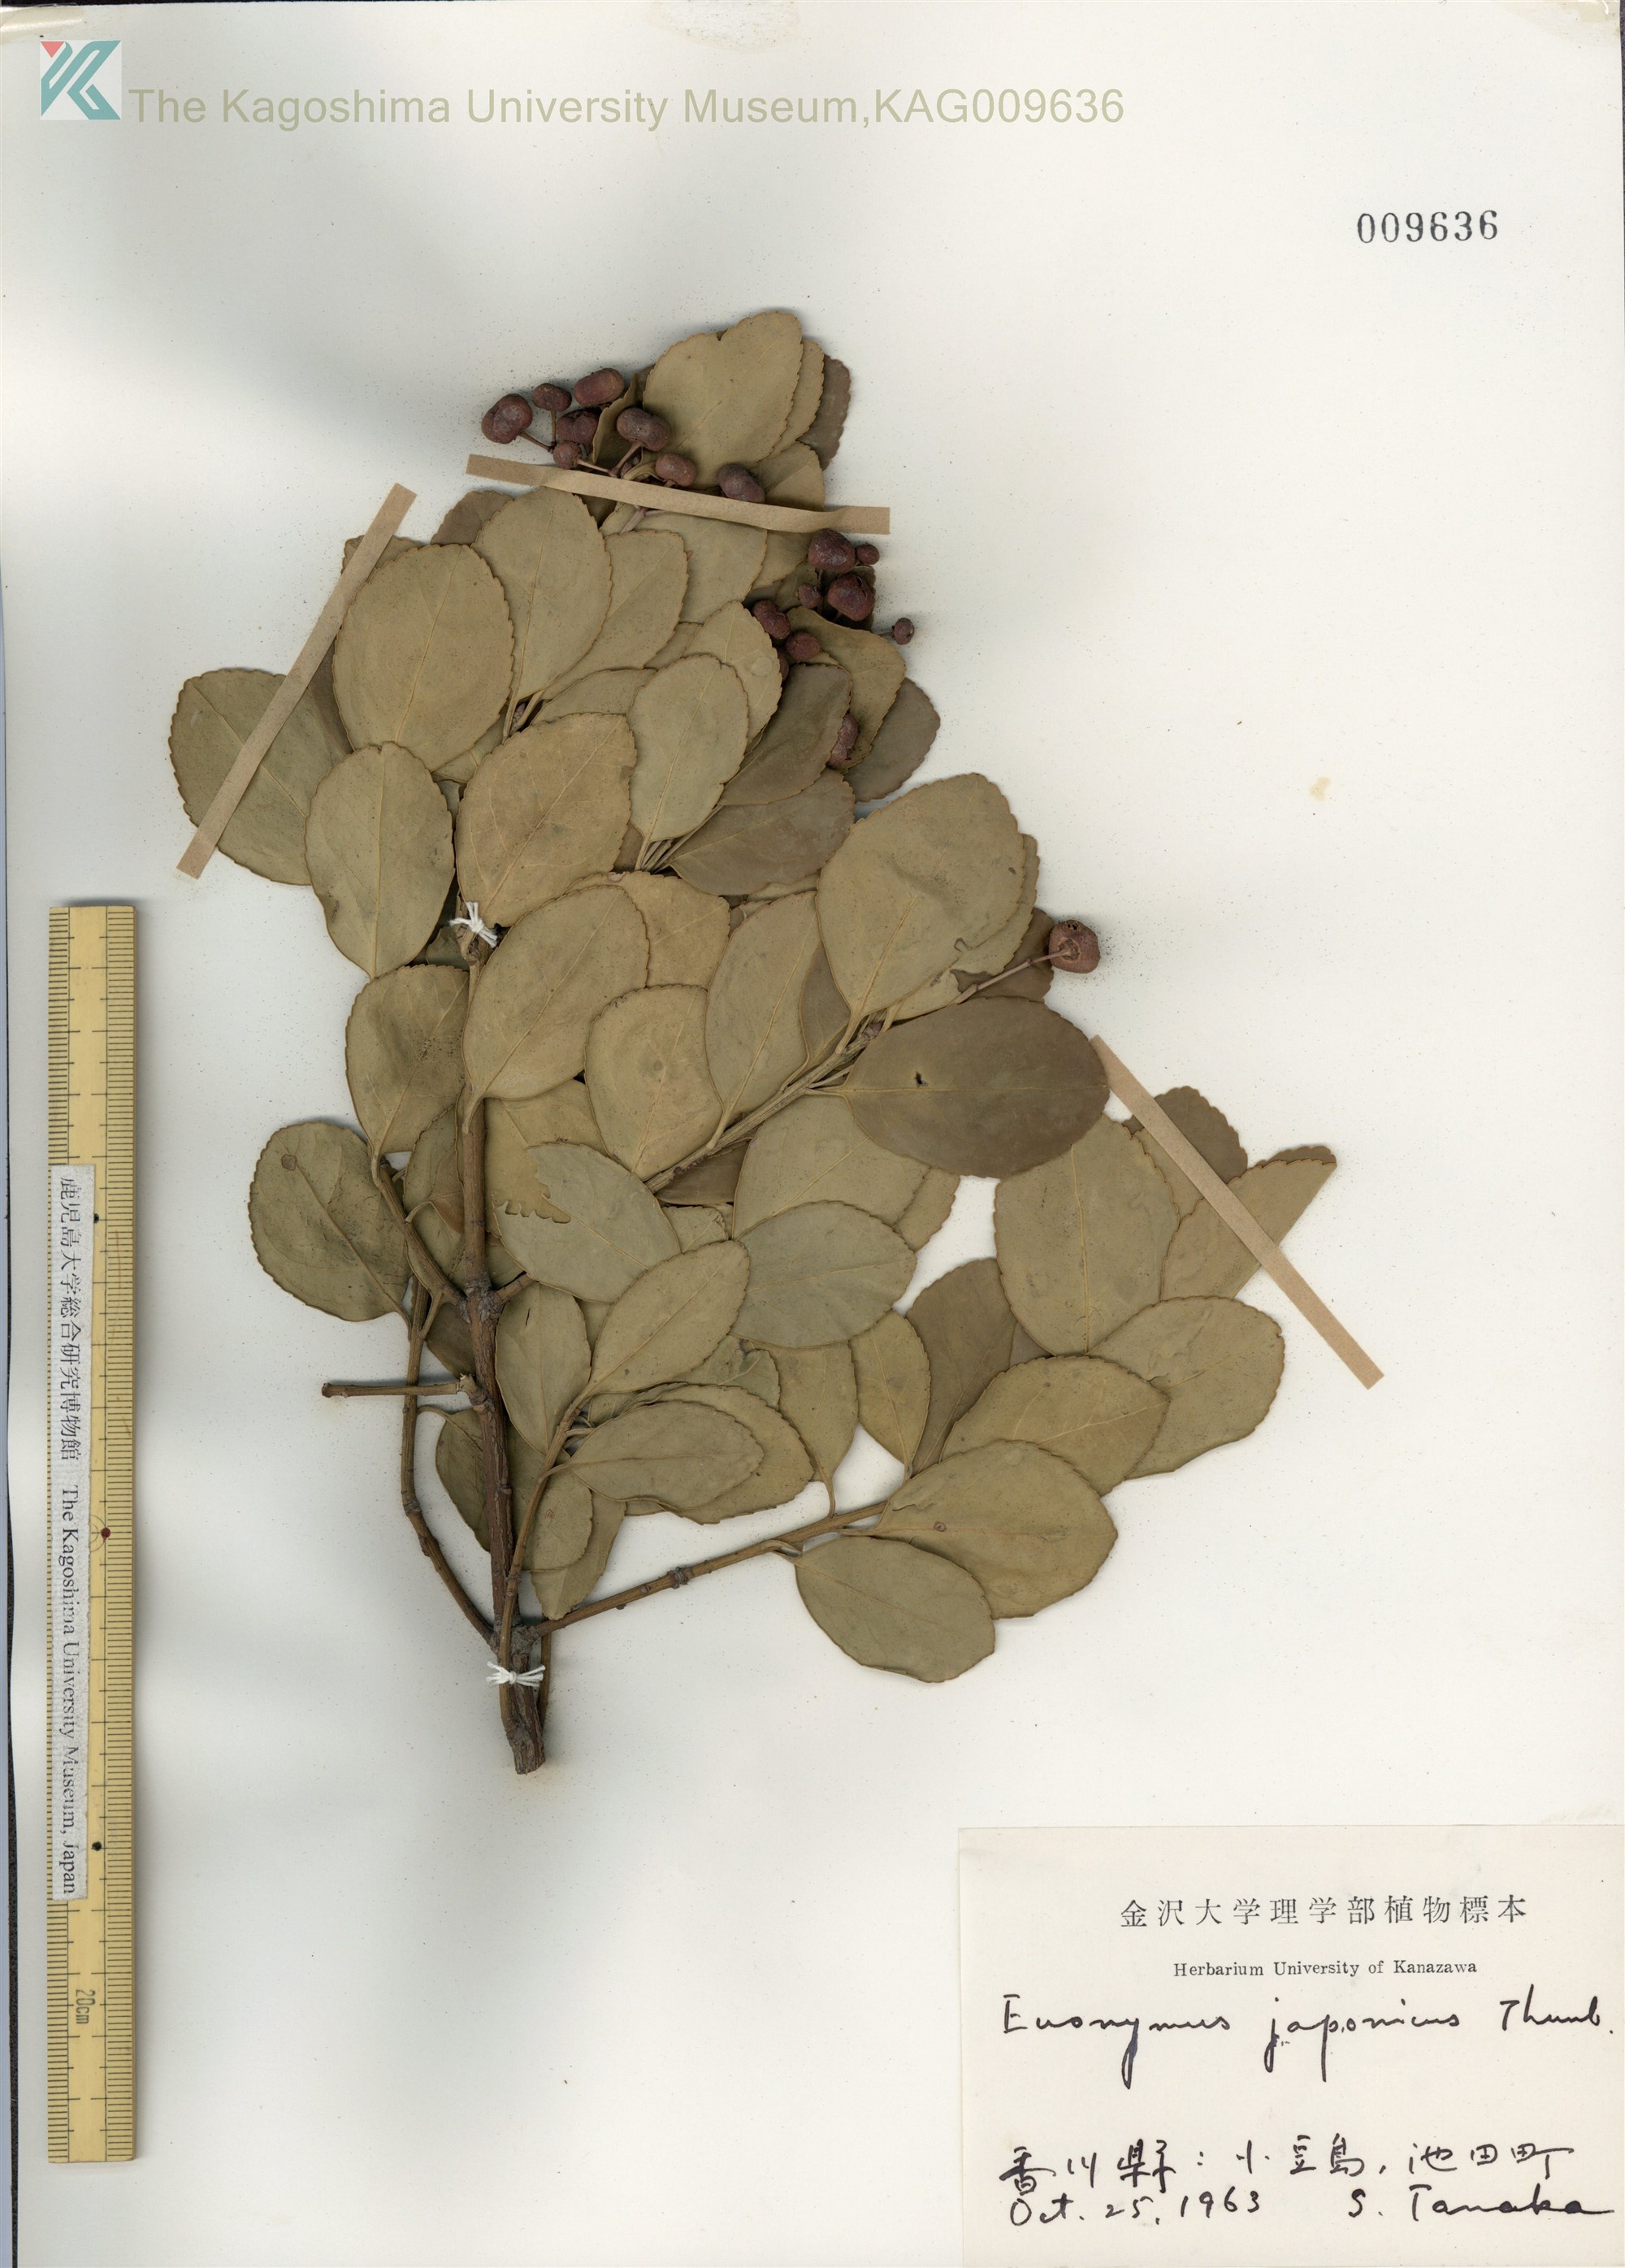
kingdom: Plantae
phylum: Tracheophyta
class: Magnoliopsida
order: Celastrales
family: Celastraceae
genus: Euonymus
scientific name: Euonymus japonicus
